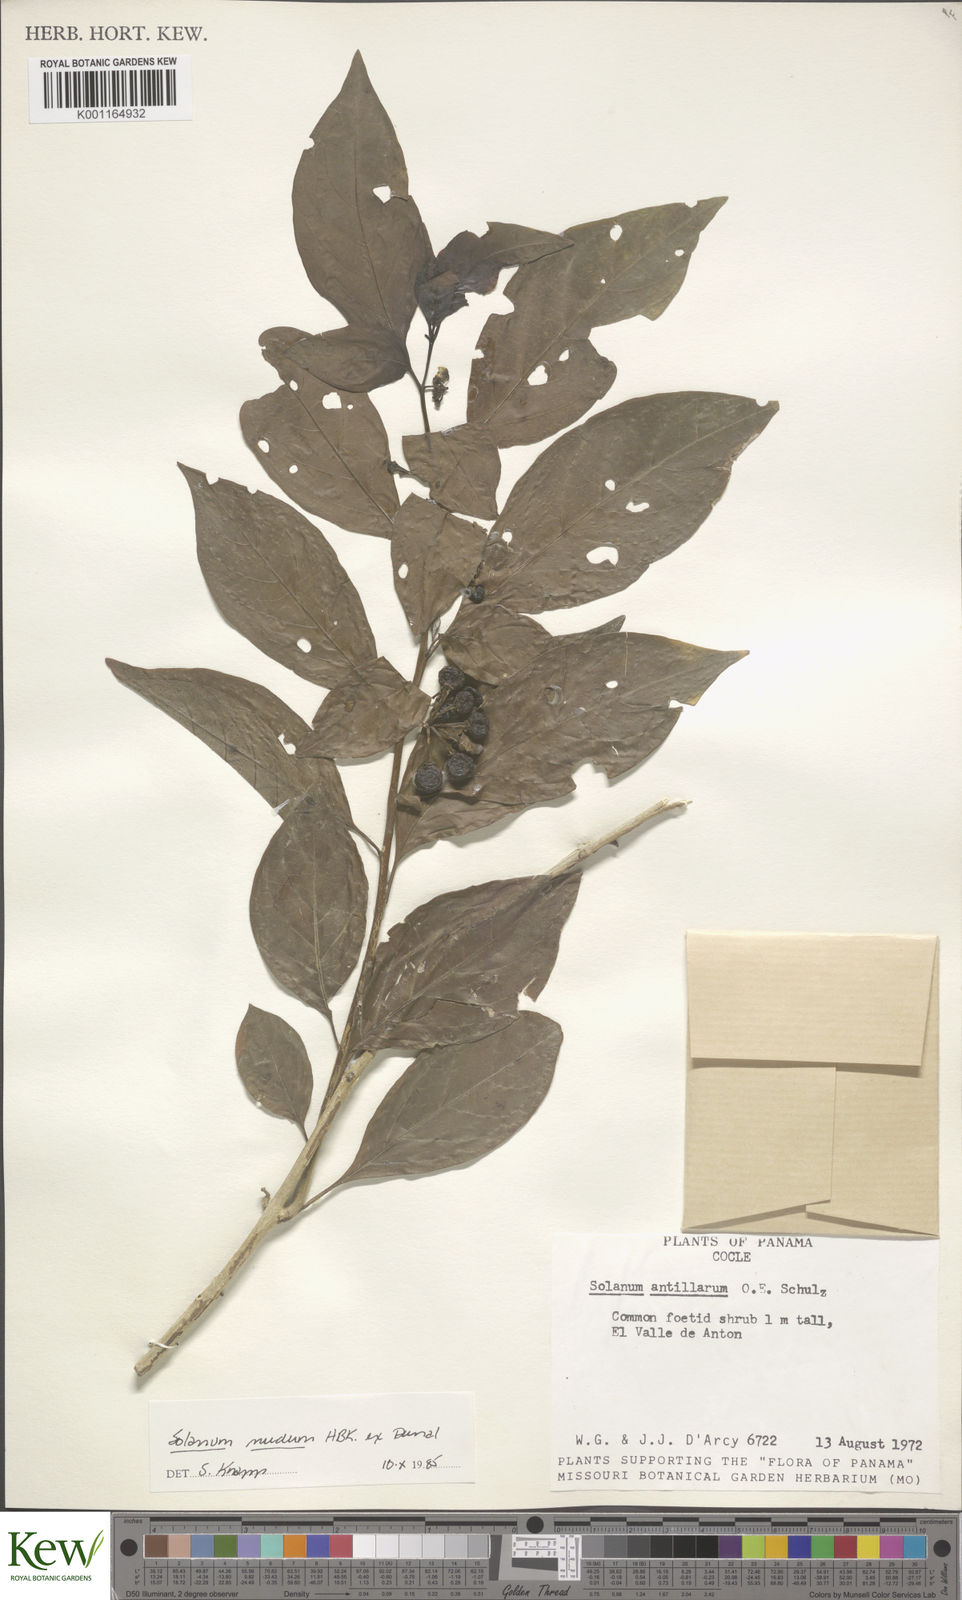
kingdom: Plantae
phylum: Tracheophyta
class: Magnoliopsida
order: Solanales
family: Solanaceae
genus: Solanum
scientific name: Solanum nudum
